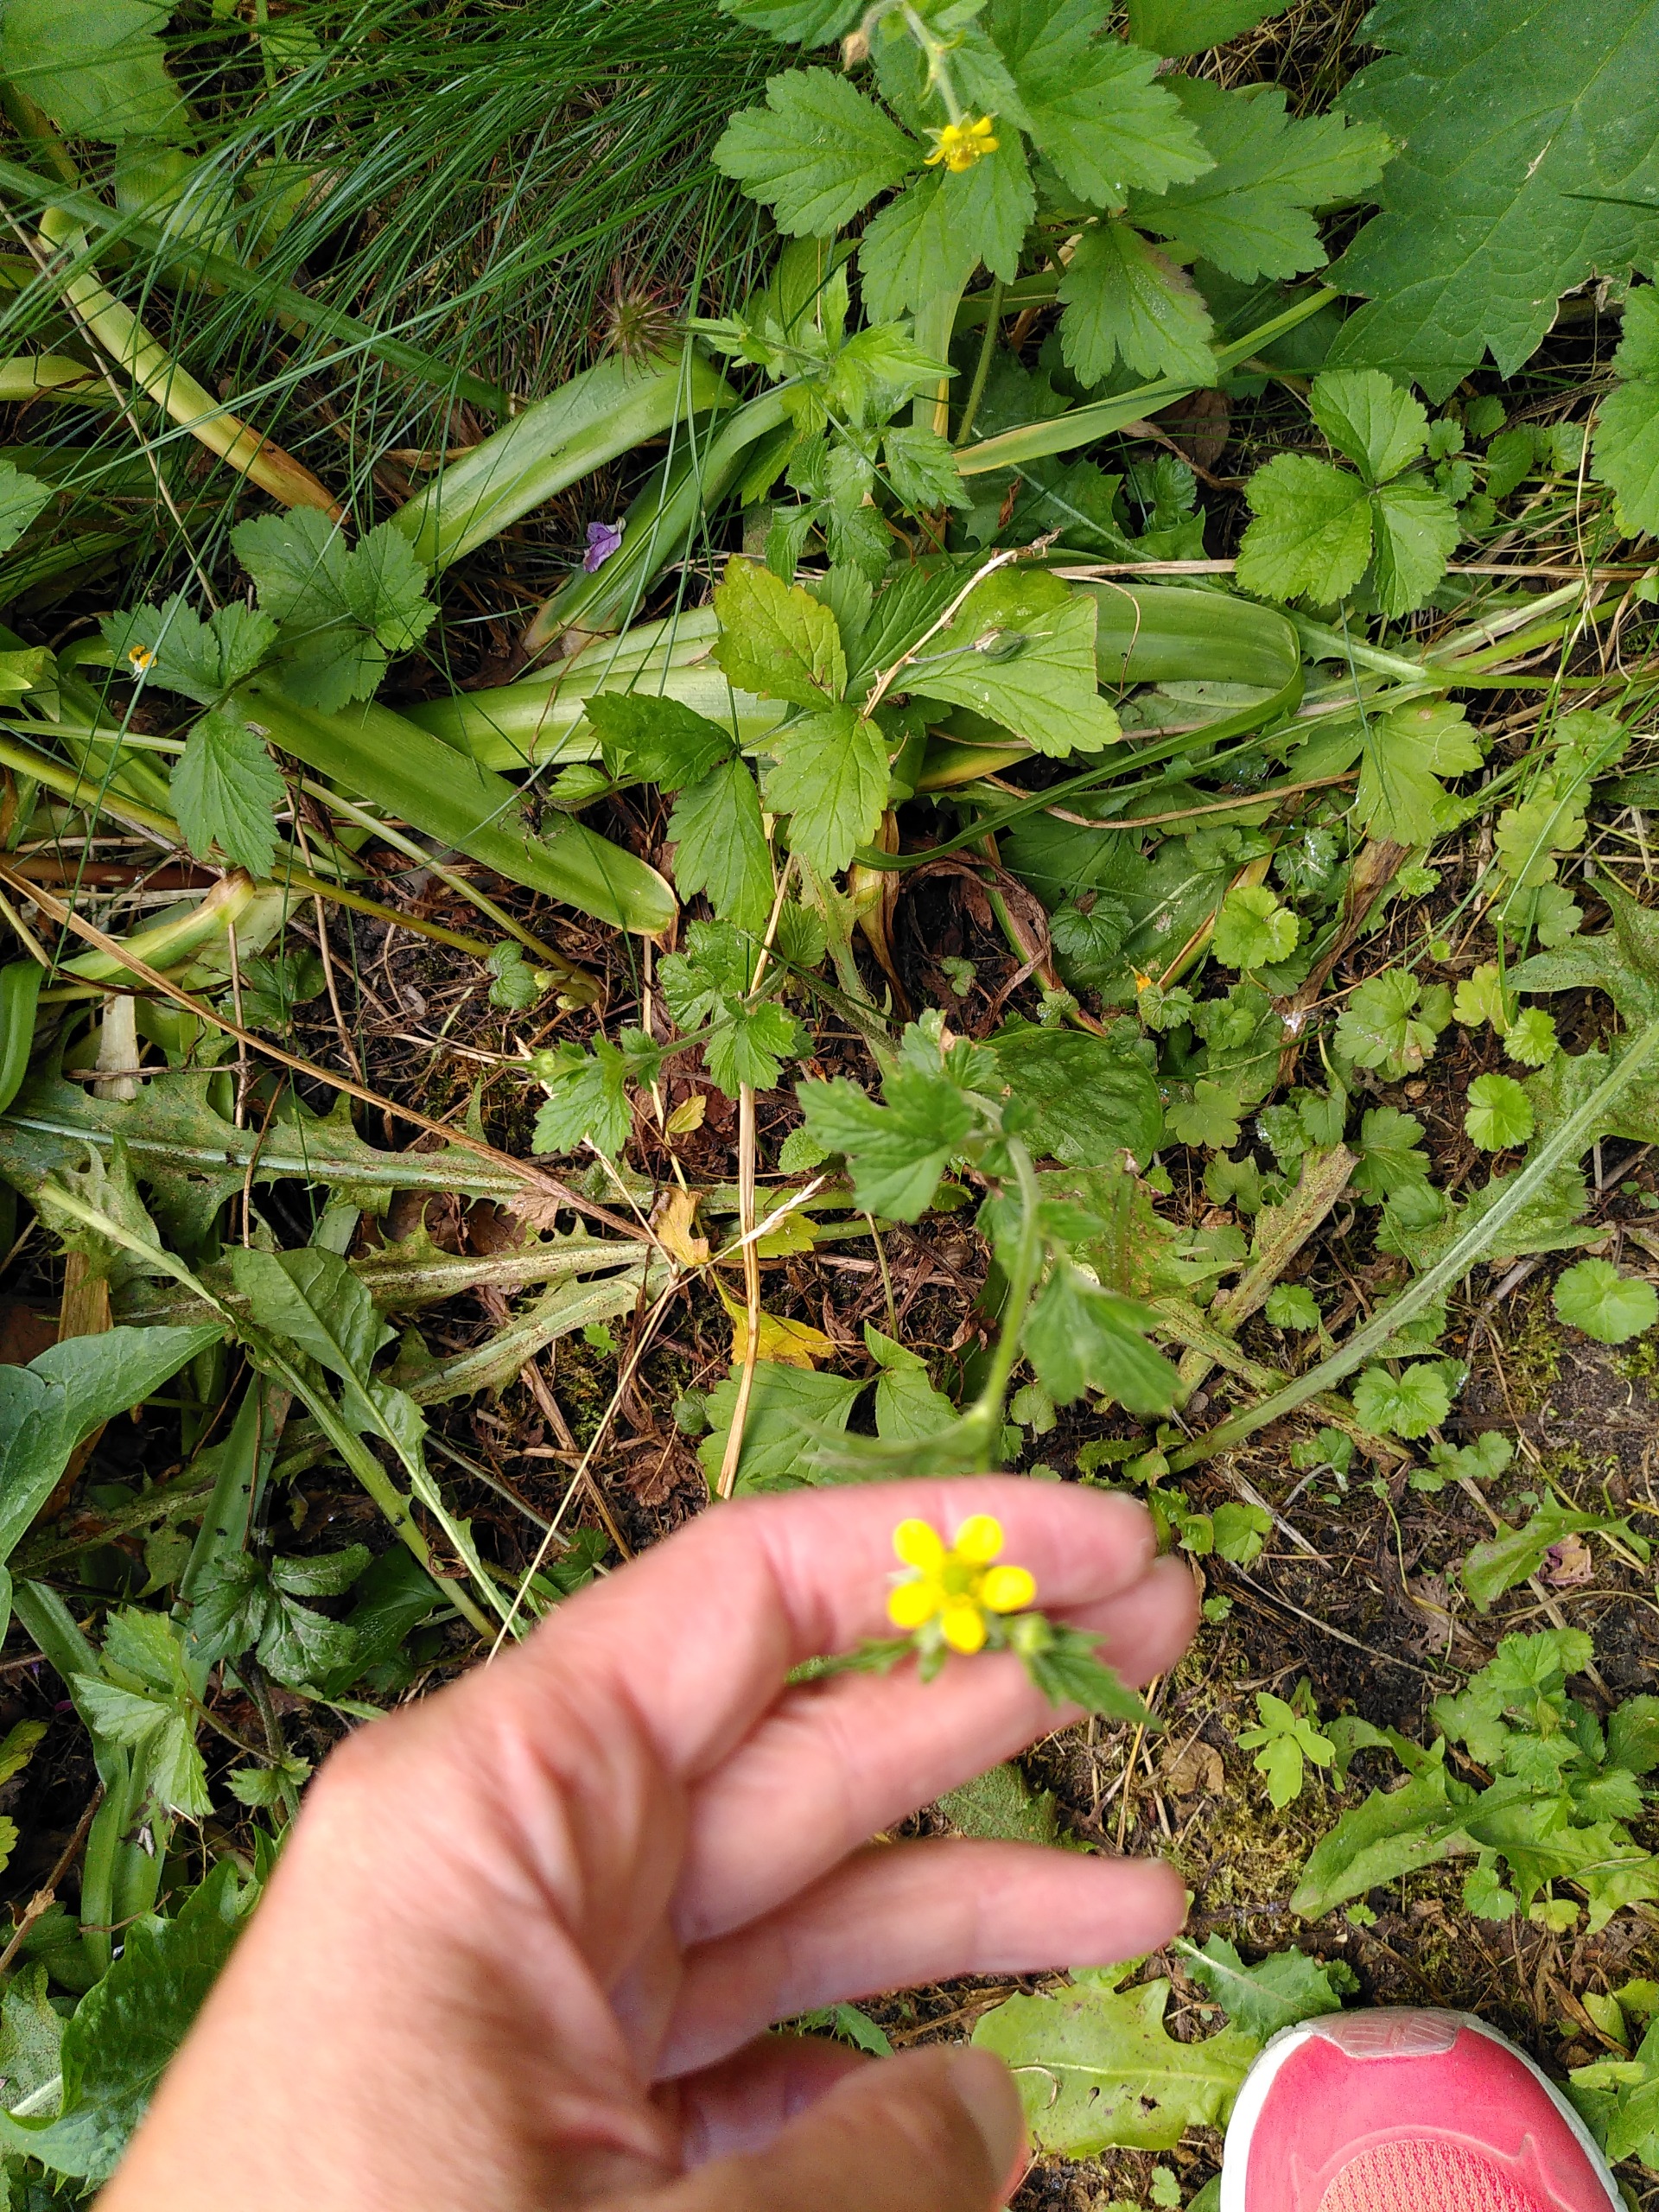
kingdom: Plantae
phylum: Tracheophyta
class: Magnoliopsida
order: Rosales
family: Rosaceae
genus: Geum
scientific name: Geum urbanum
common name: Feber-nellikerod
